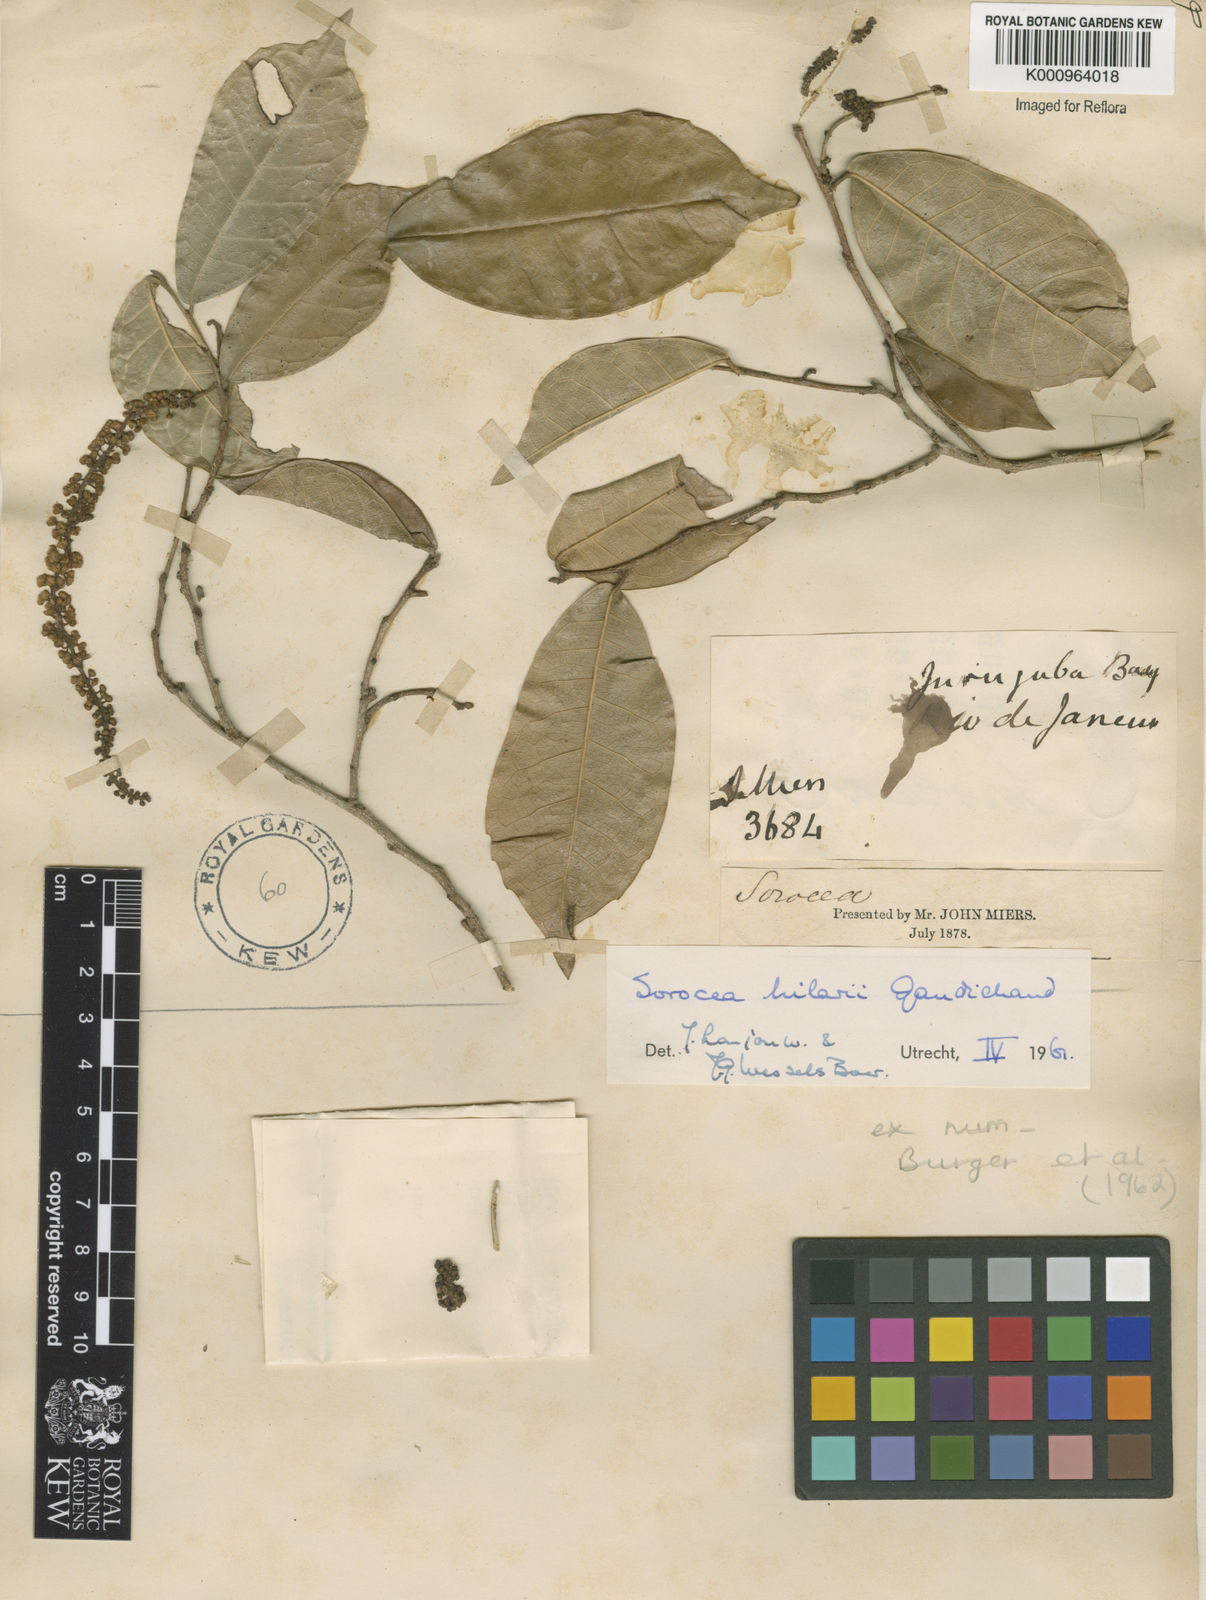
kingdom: Plantae
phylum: Tracheophyta
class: Magnoliopsida
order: Rosales
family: Moraceae
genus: Sorocea
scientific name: Sorocea hilarii
